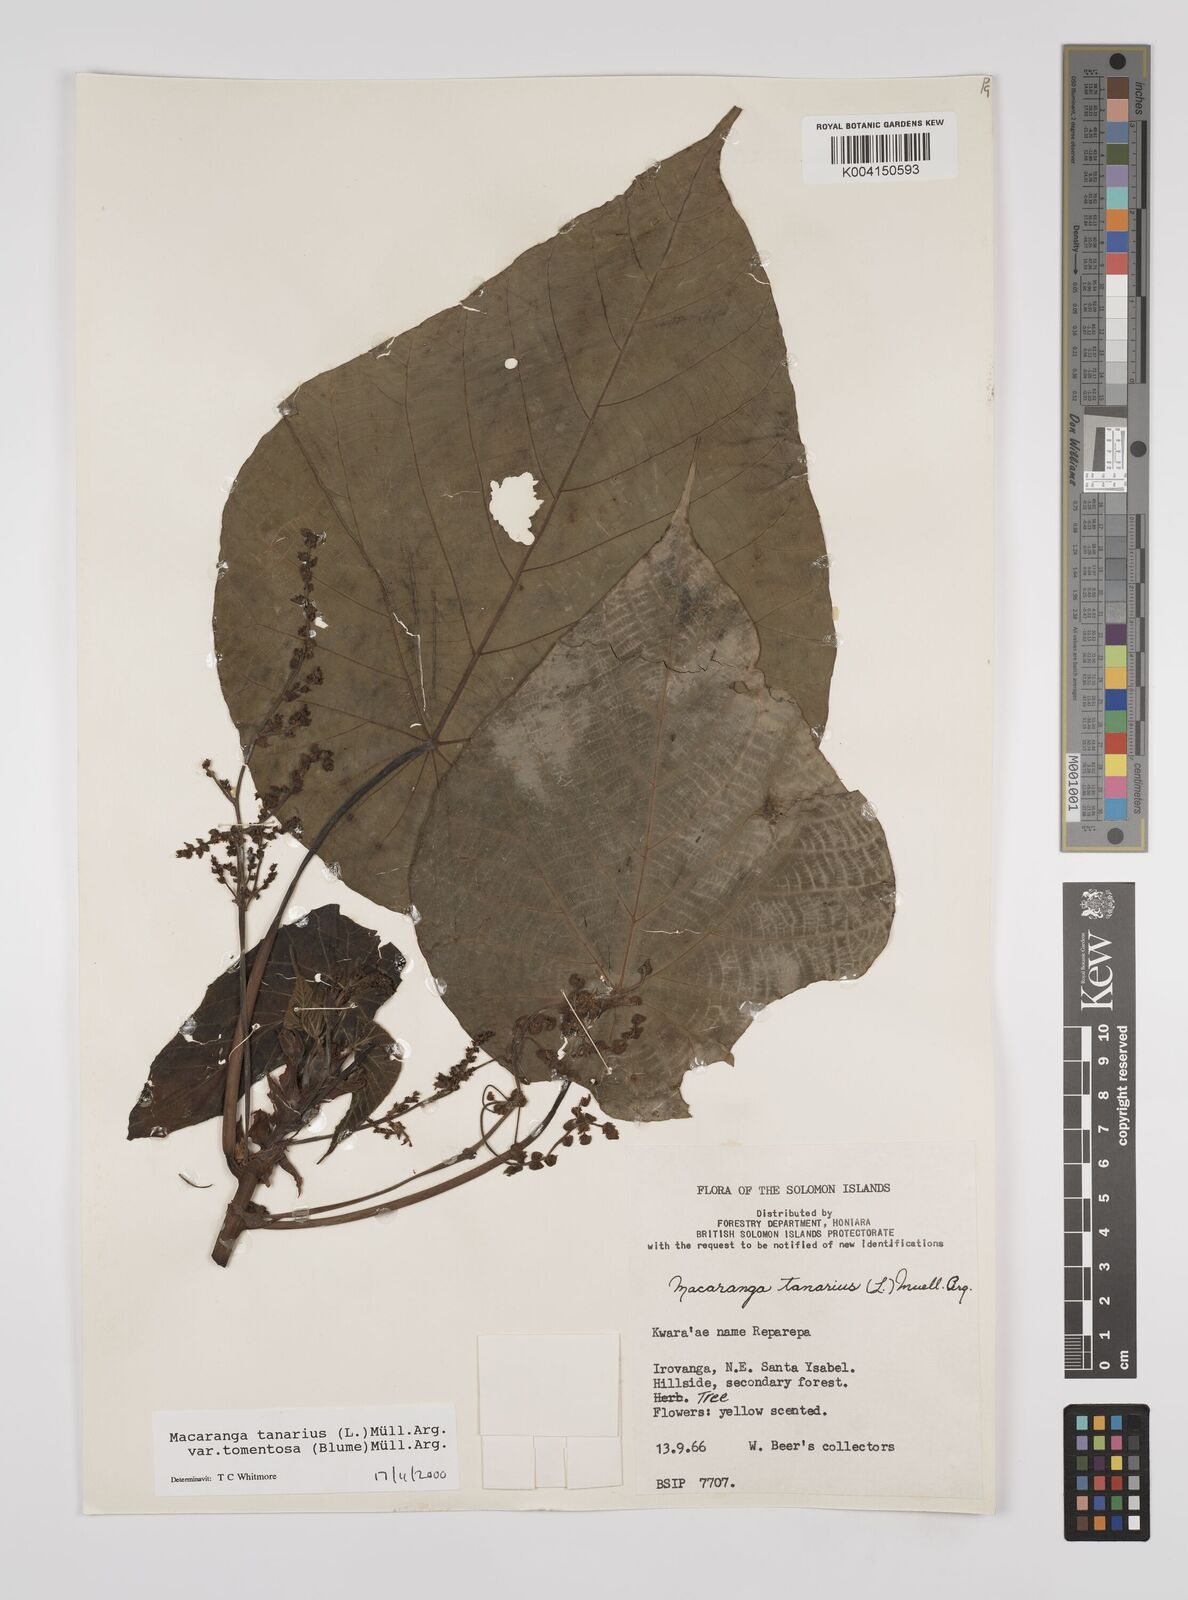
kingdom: Plantae
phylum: Tracheophyta
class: Magnoliopsida
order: Malpighiales
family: Euphorbiaceae
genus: Macaranga
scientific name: Macaranga tanarius
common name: Parasol leaf tree
